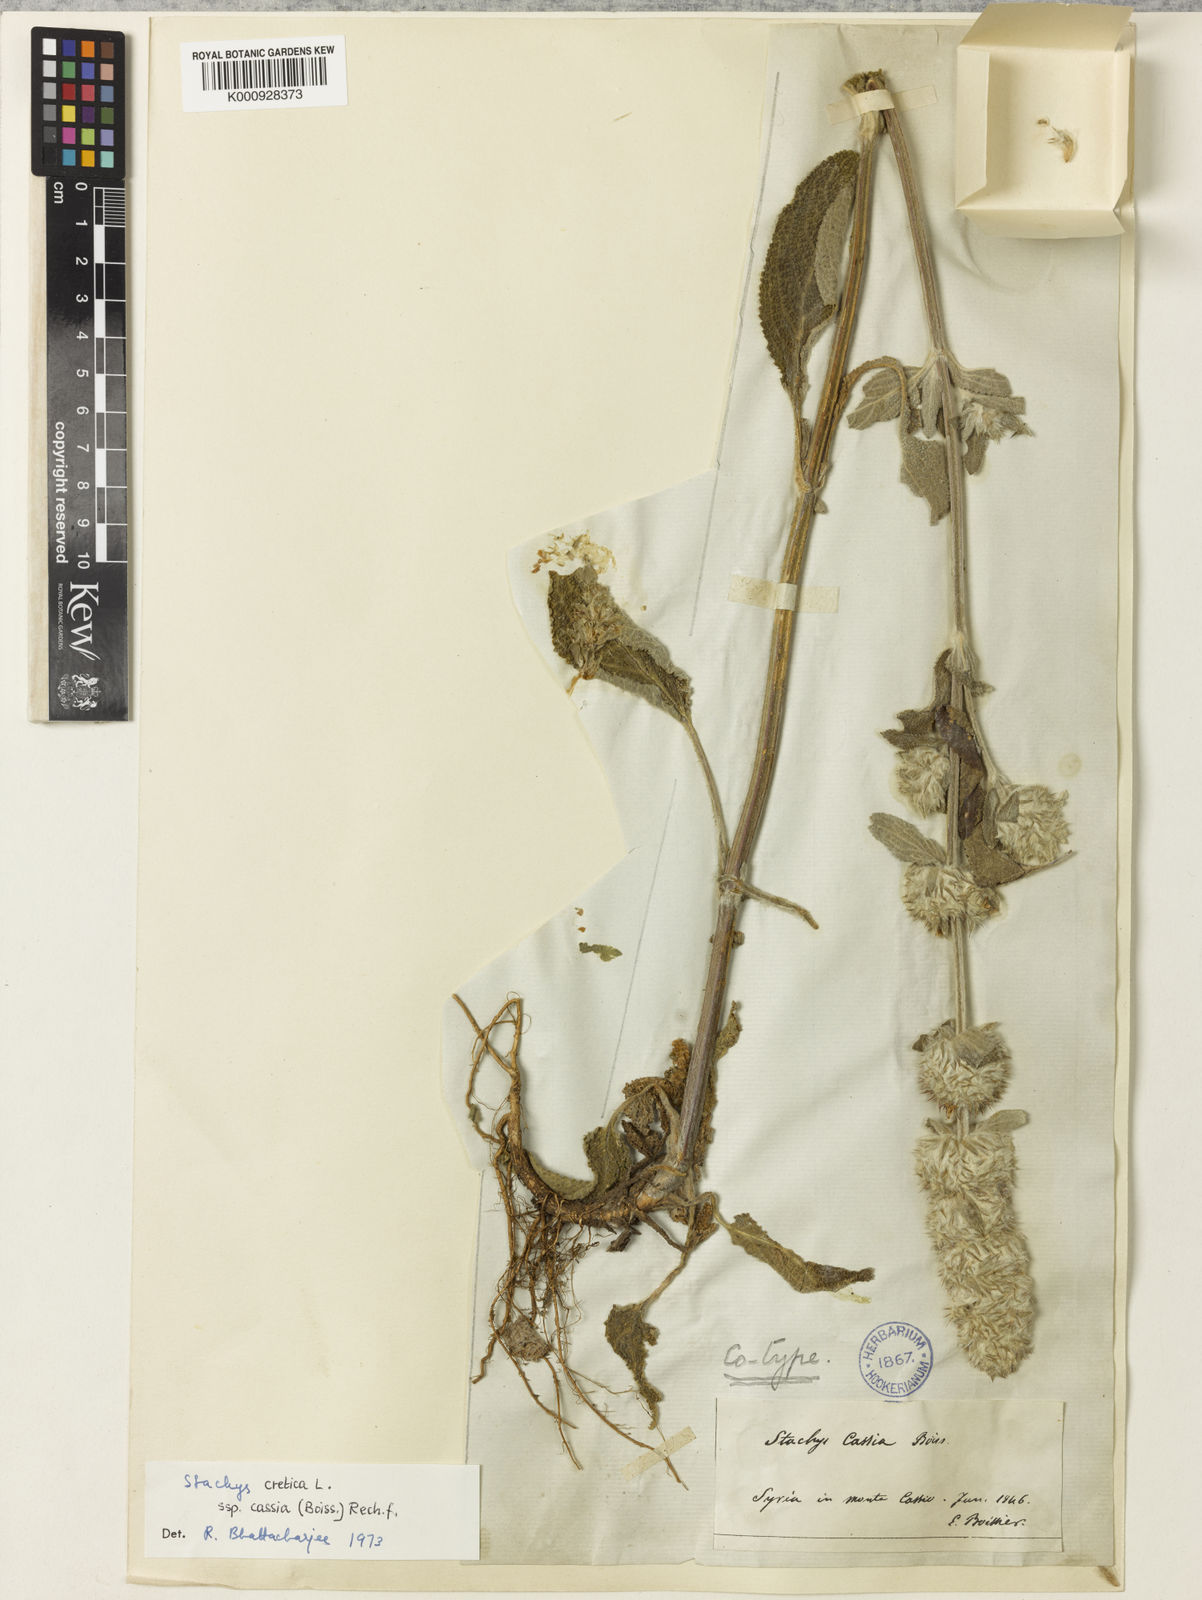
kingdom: Plantae
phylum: Tracheophyta
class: Magnoliopsida
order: Lamiales
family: Lamiaceae
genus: Stachys
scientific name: Stachys cretica
